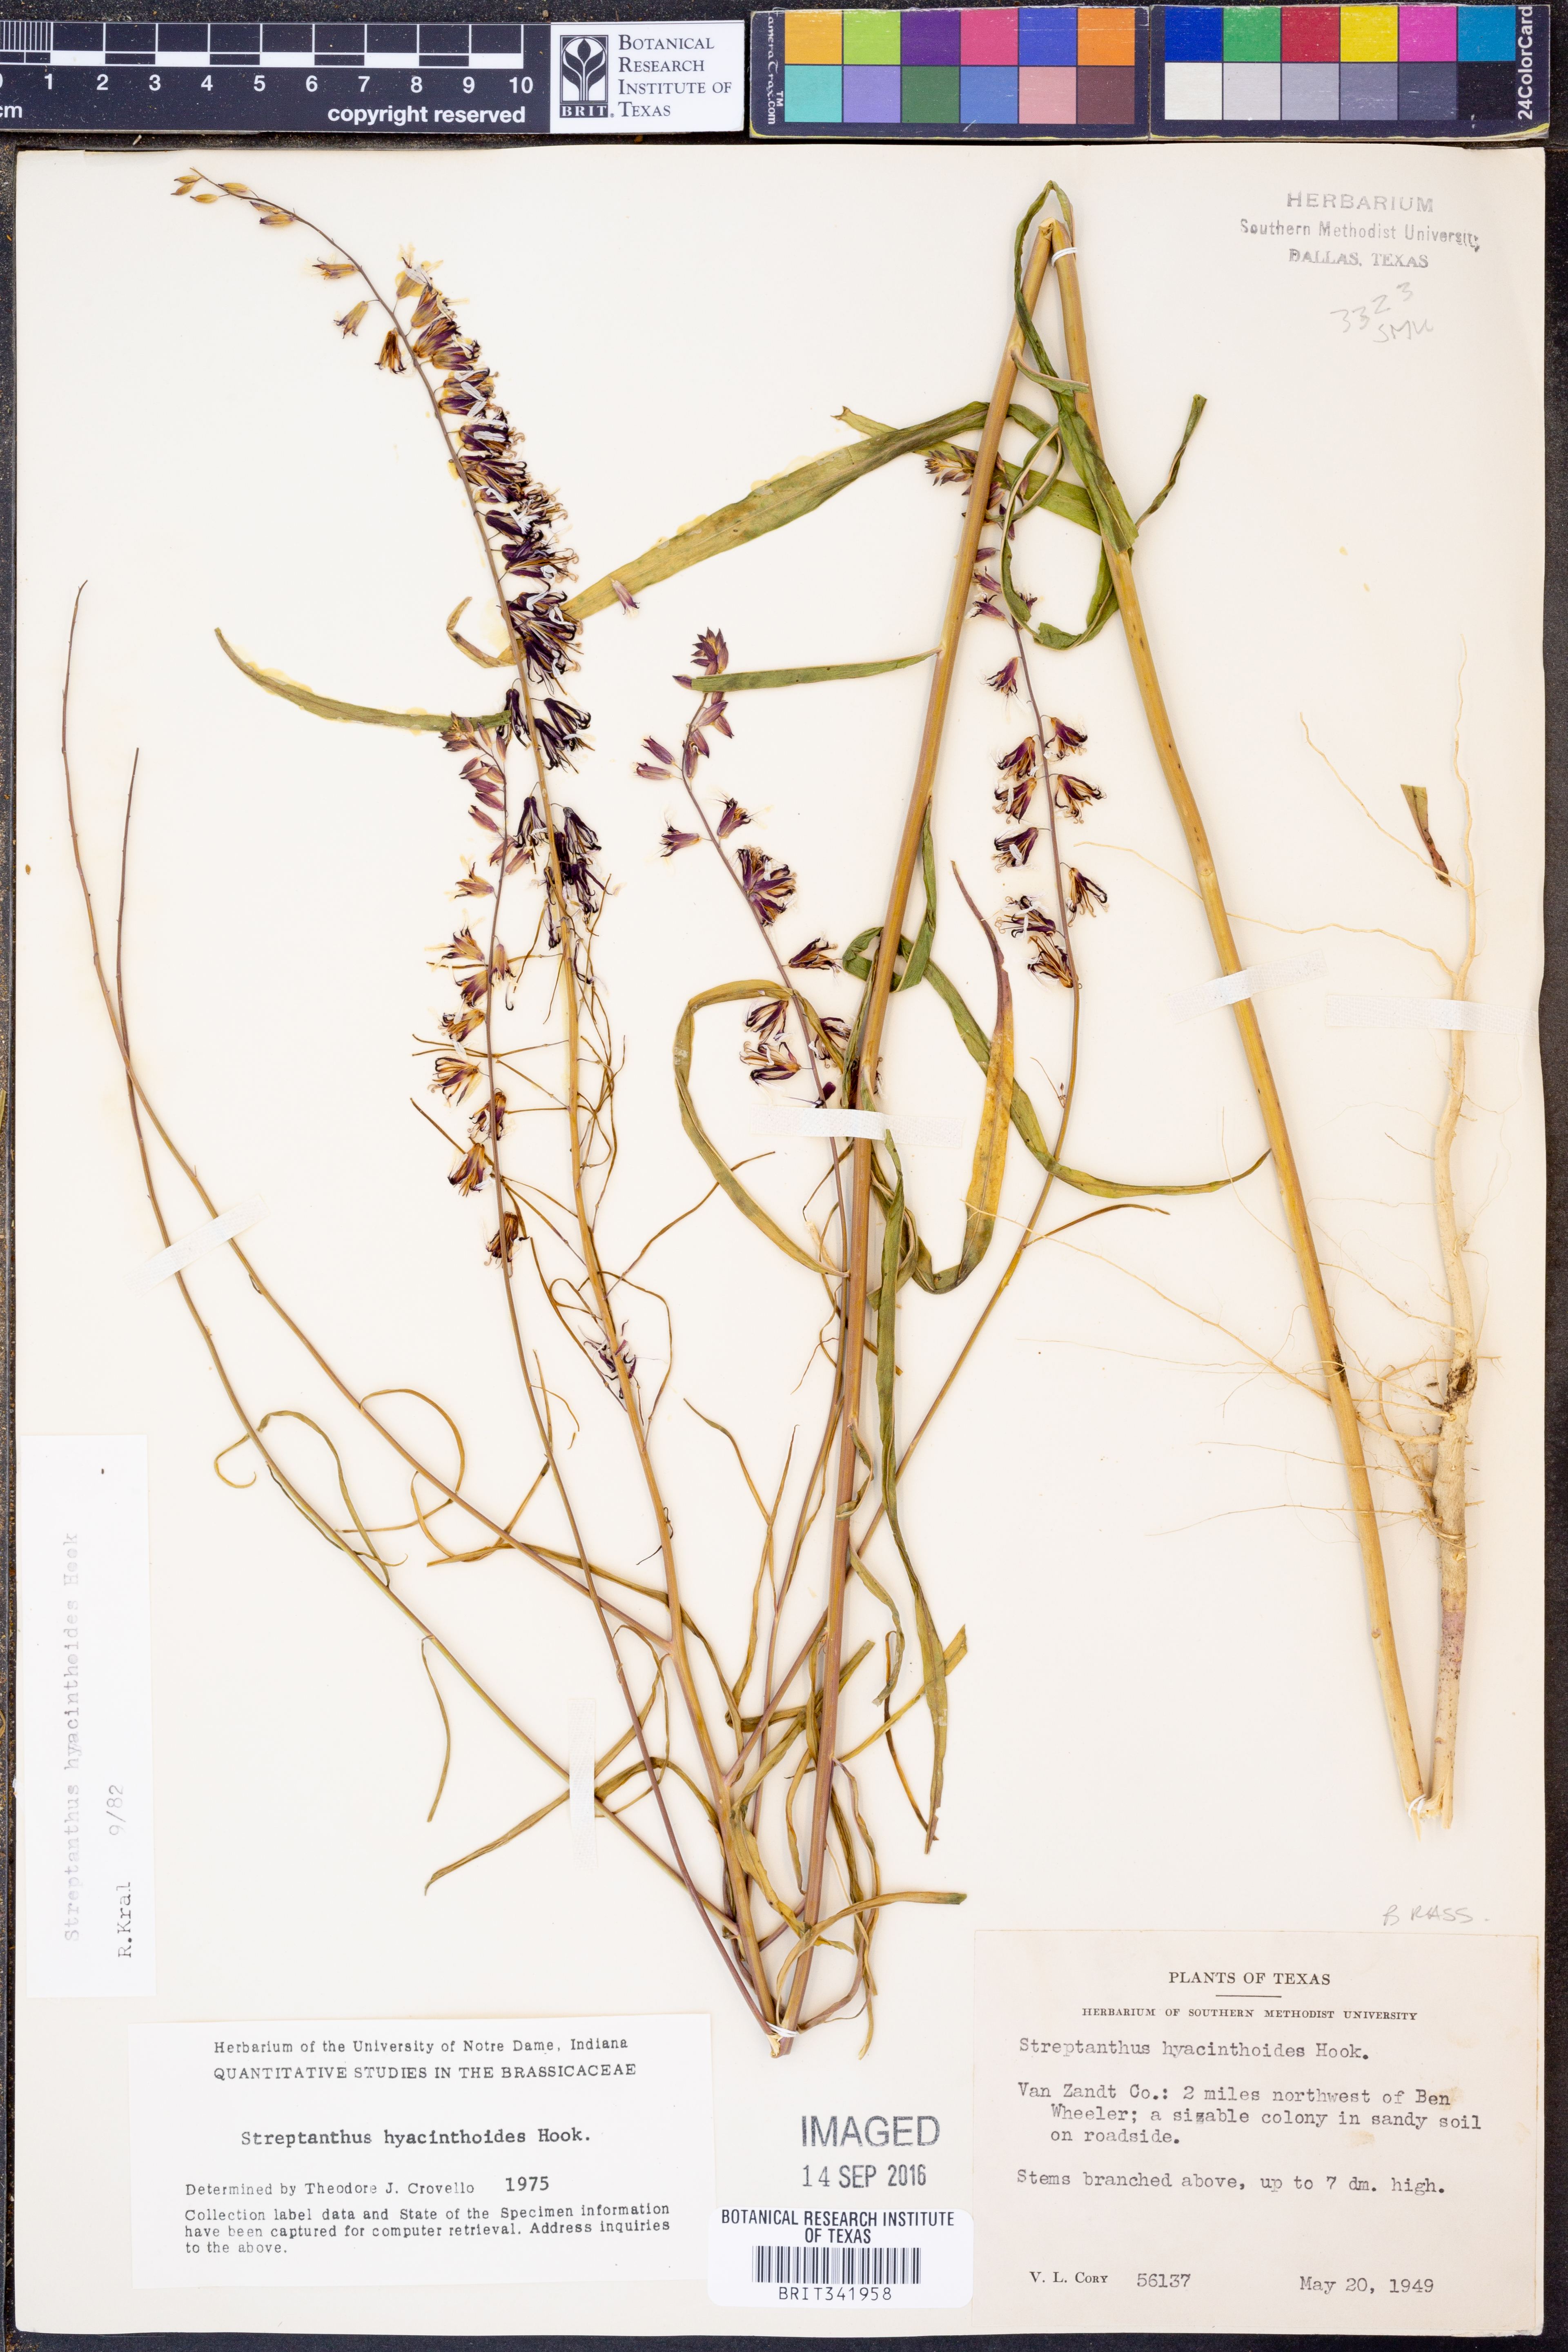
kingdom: Plantae
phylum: Tracheophyta
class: Magnoliopsida
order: Brassicales
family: Brassicaceae
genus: Streptanthus
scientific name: Streptanthus hyacinthoides
